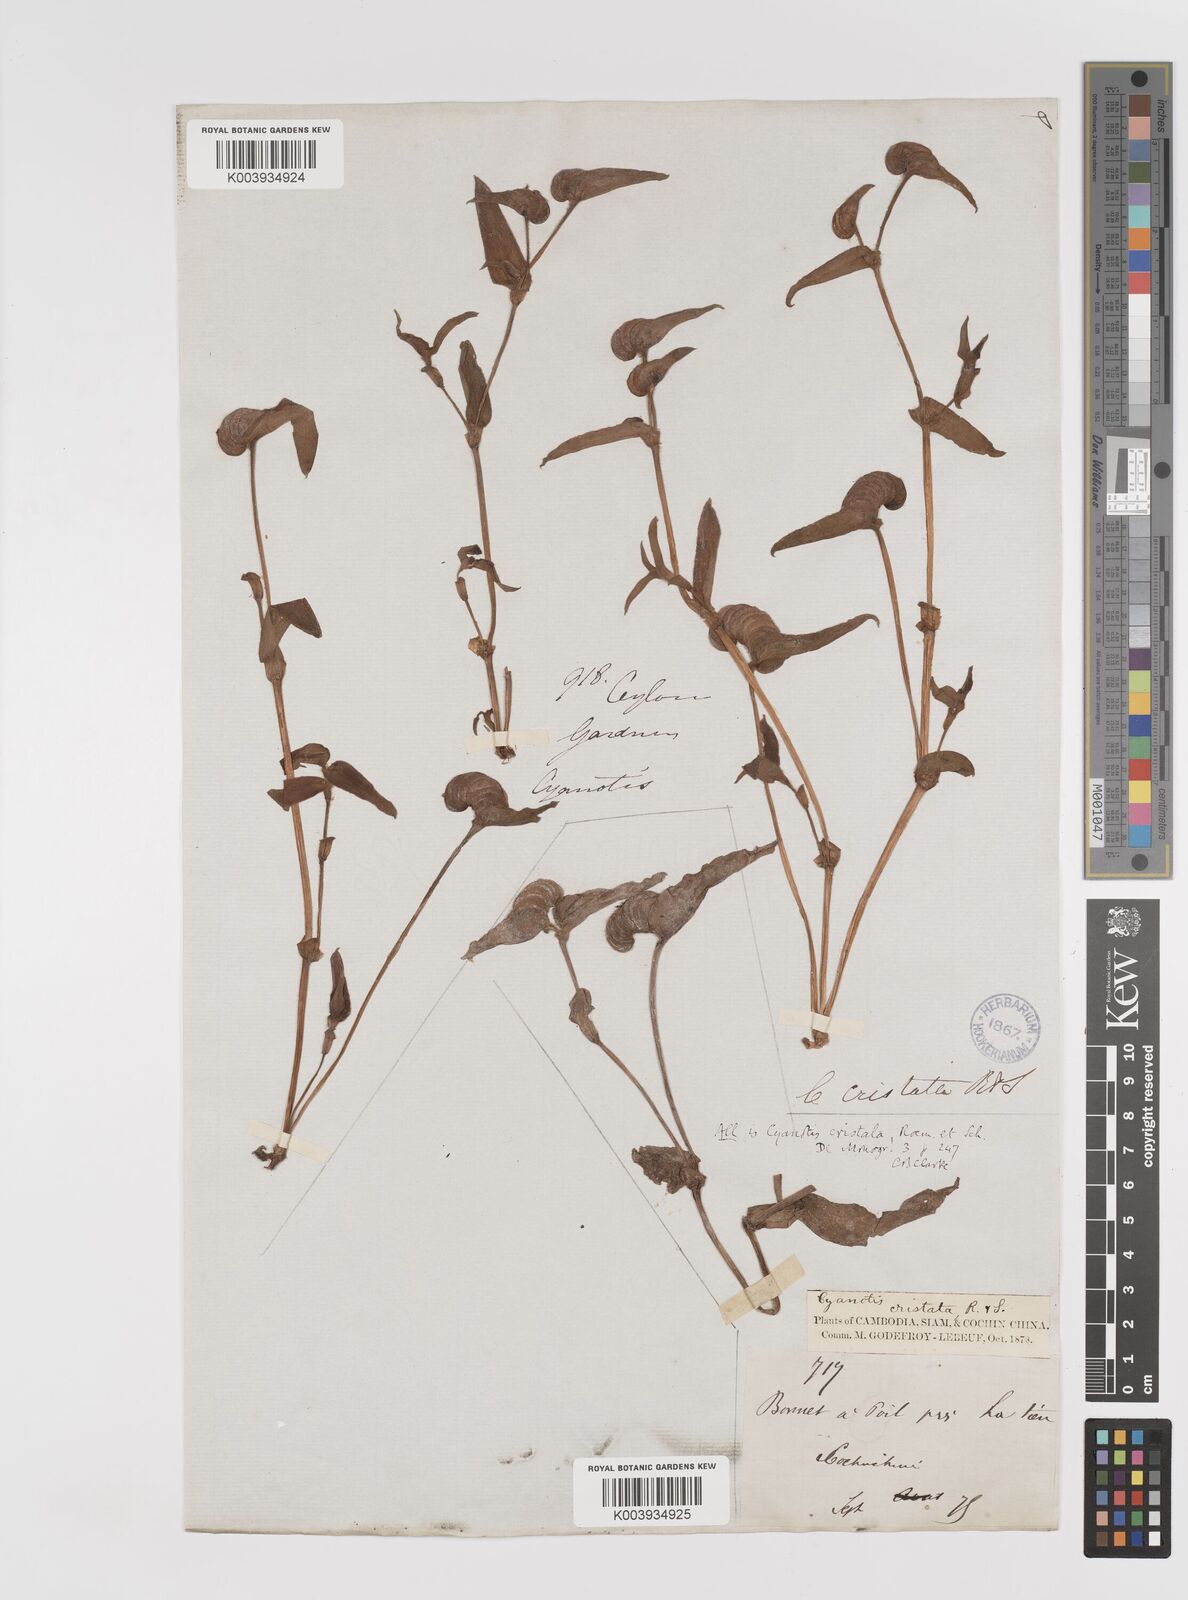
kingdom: Plantae
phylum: Tracheophyta
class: Liliopsida
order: Commelinales
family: Commelinaceae
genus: Cyanotis
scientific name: Cyanotis cristata
